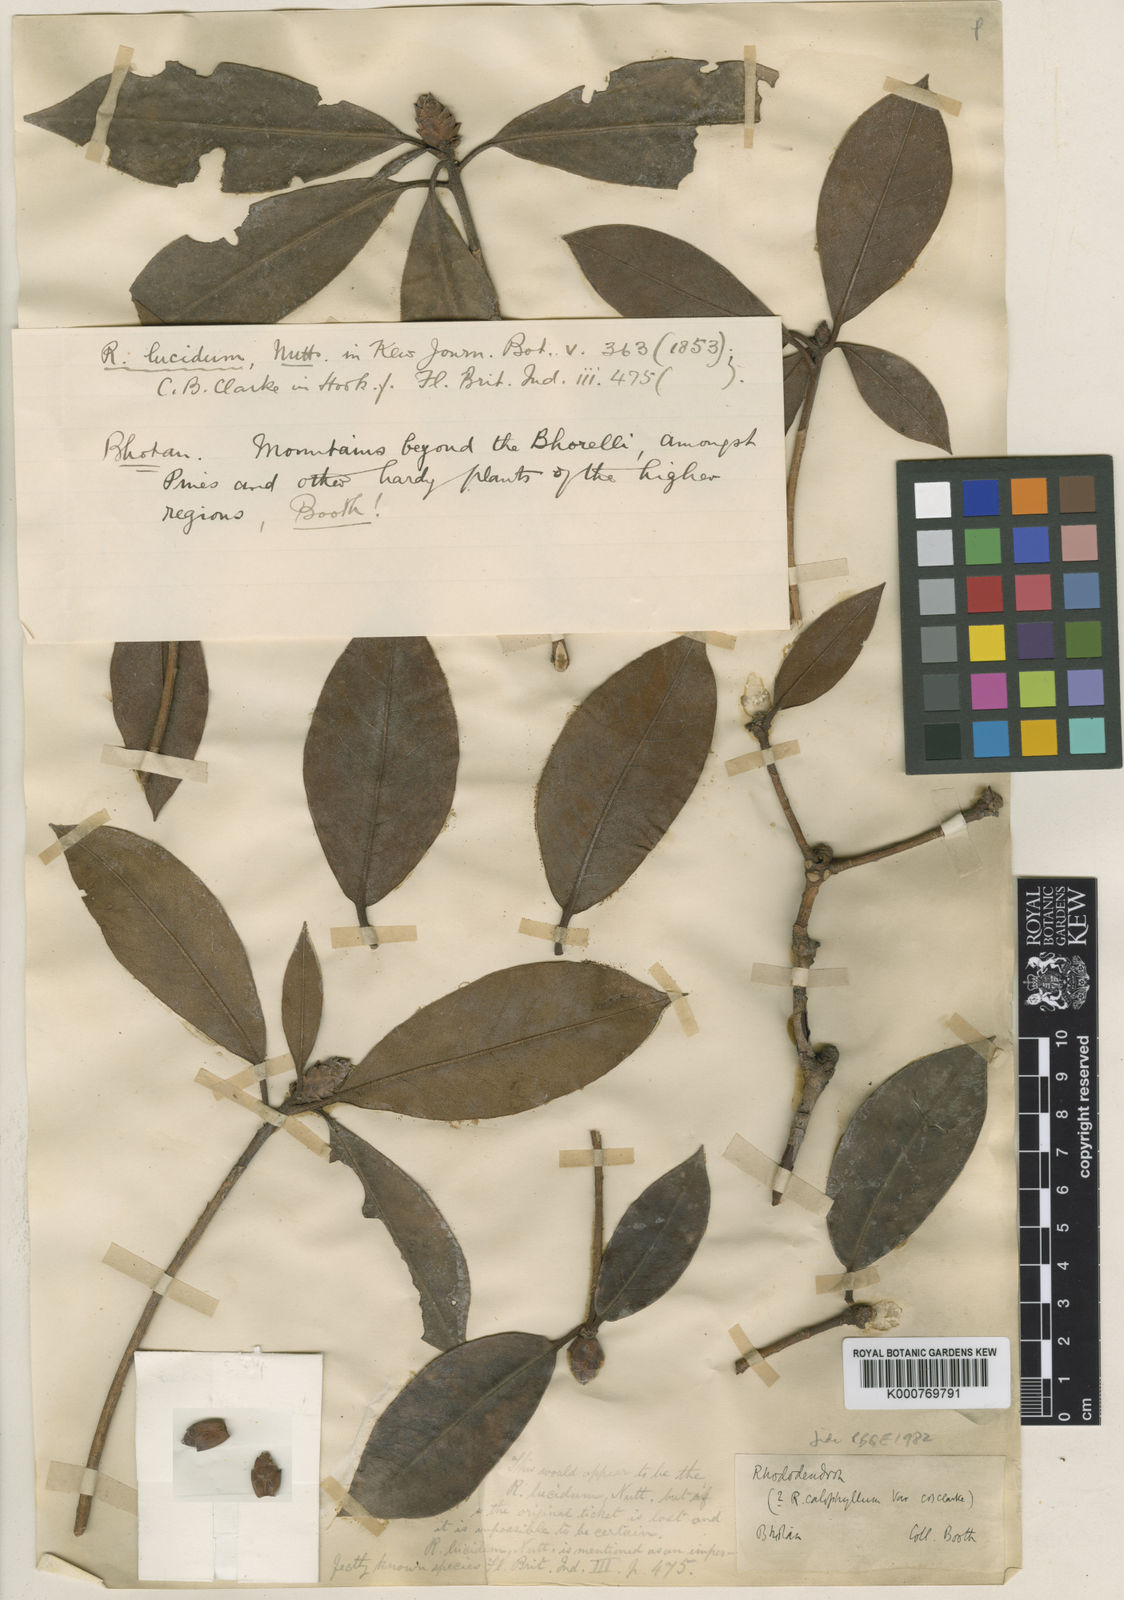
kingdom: Plantae
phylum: Tracheophyta
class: Magnoliopsida
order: Ericales
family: Ericaceae
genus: Rhododendron
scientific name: Rhododendron camelliiflorum
